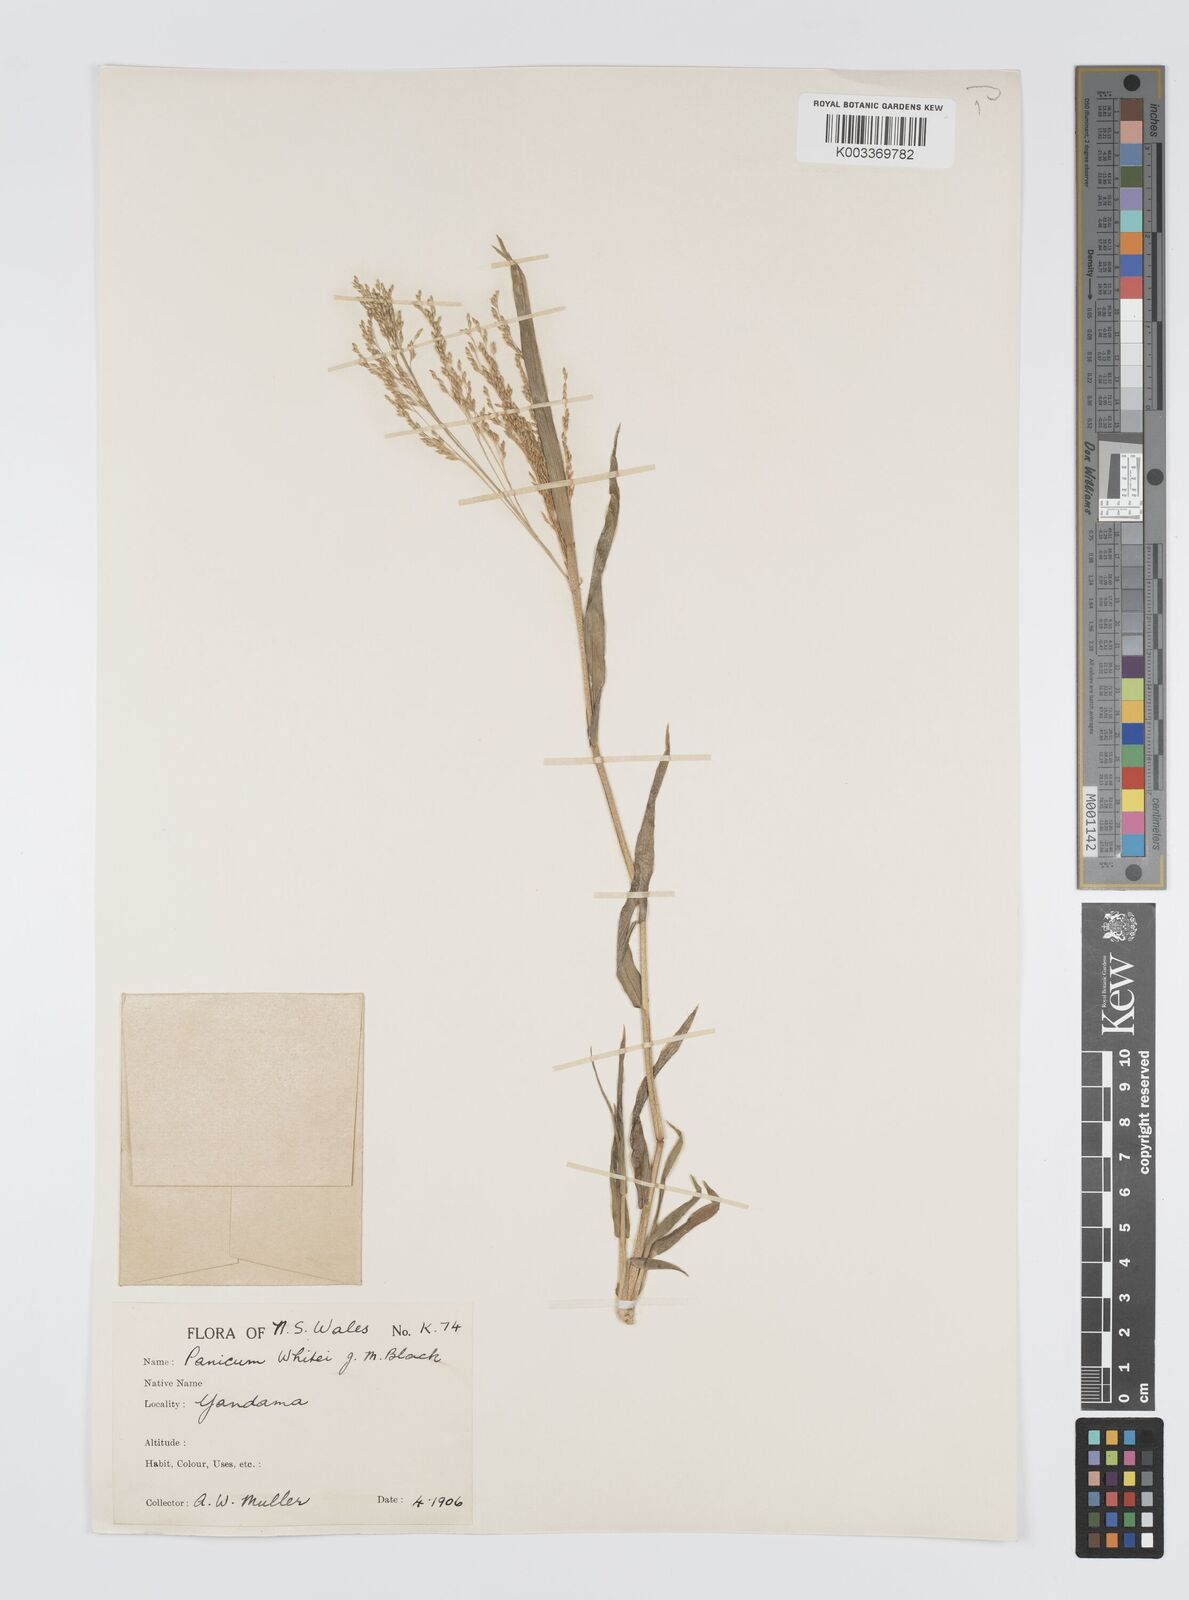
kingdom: Plantae
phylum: Tracheophyta
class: Liliopsida
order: Poales
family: Poaceae
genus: Panicum
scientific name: Panicum laevinode
